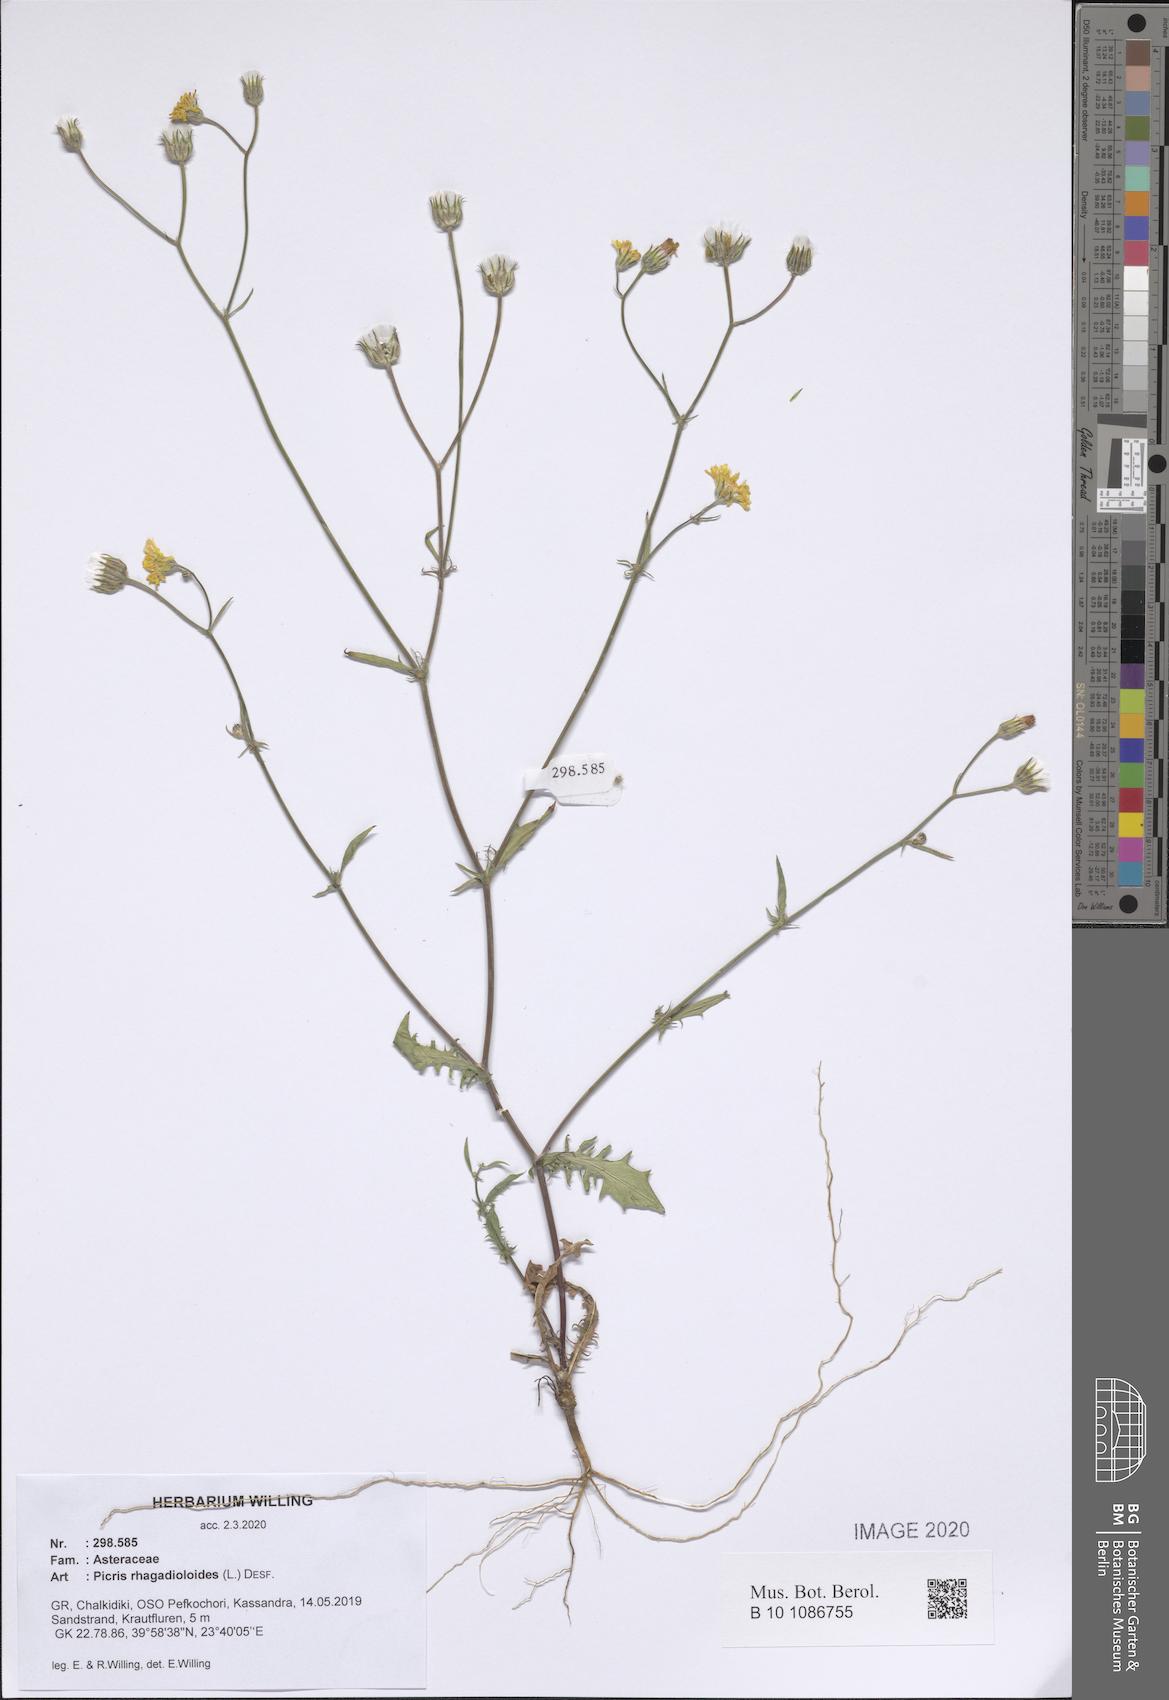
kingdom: Plantae
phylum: Tracheophyta
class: Magnoliopsida
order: Asterales
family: Asteraceae
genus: Picris
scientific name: Picris rhagadioloides
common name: Oxtongue
